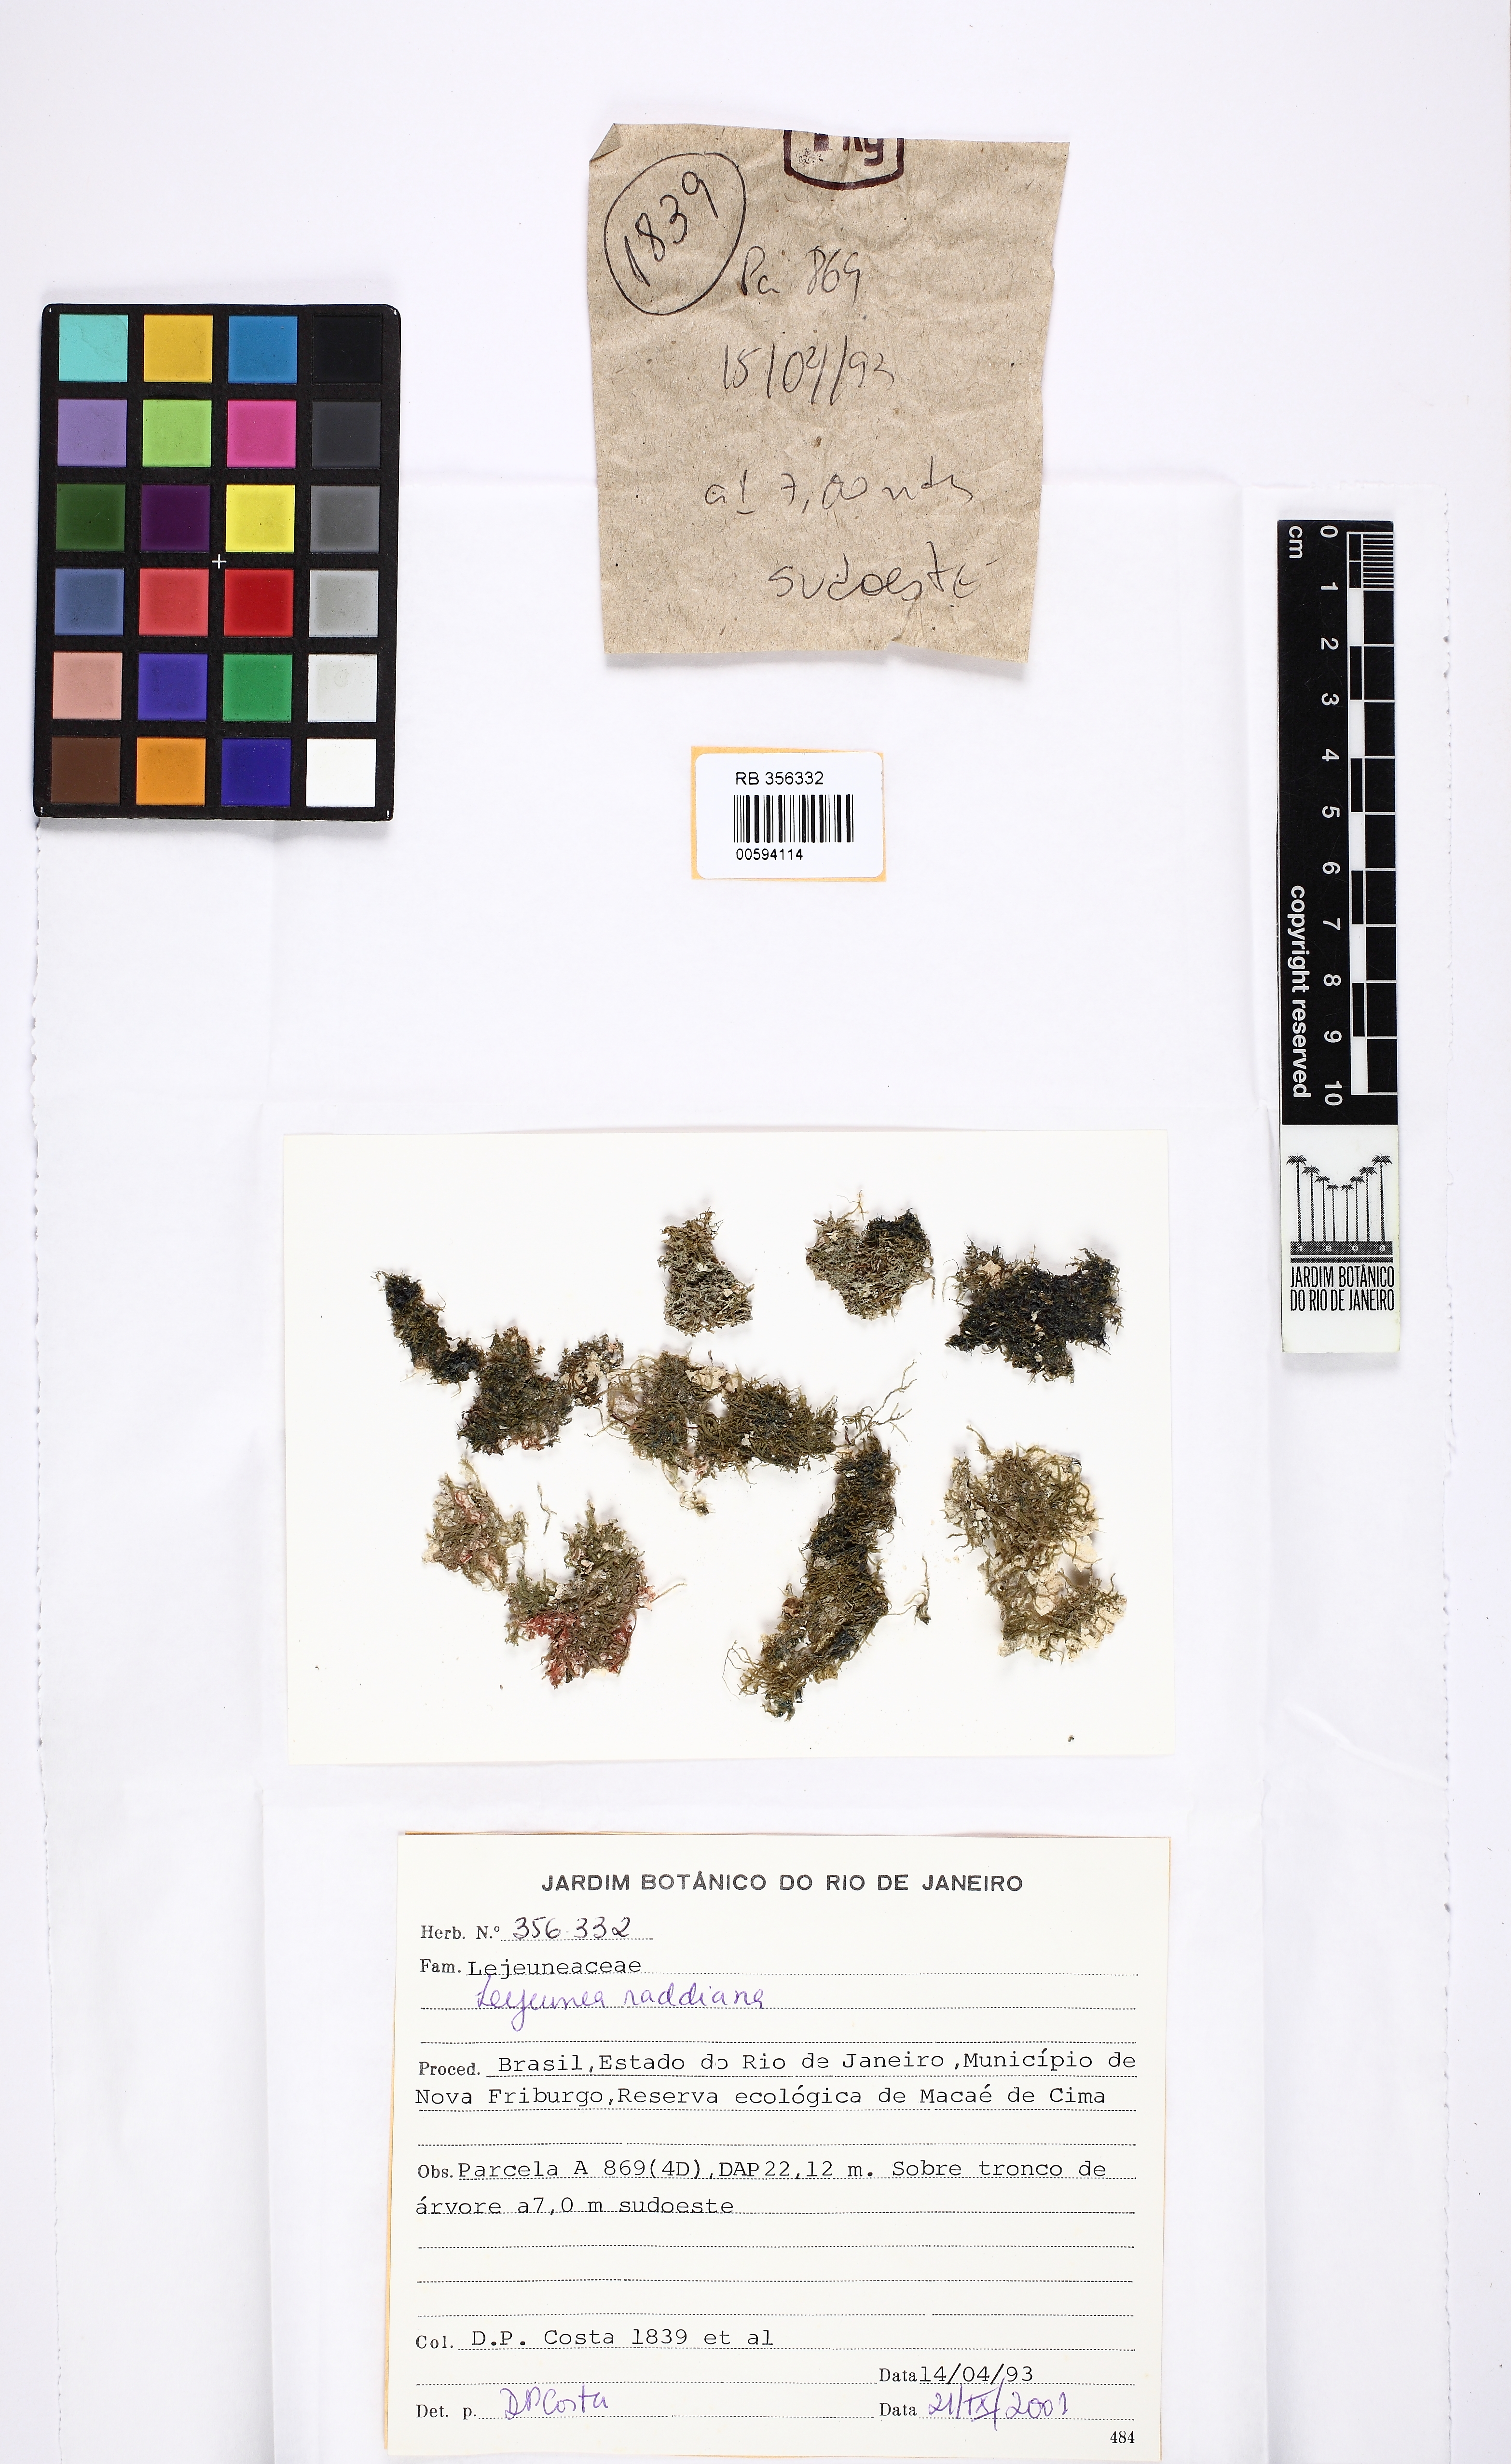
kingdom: Plantae
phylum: Marchantiophyta
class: Jungermanniopsida
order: Porellales
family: Lejeuneaceae
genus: Lejeunea
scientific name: Lejeunea raddiana
